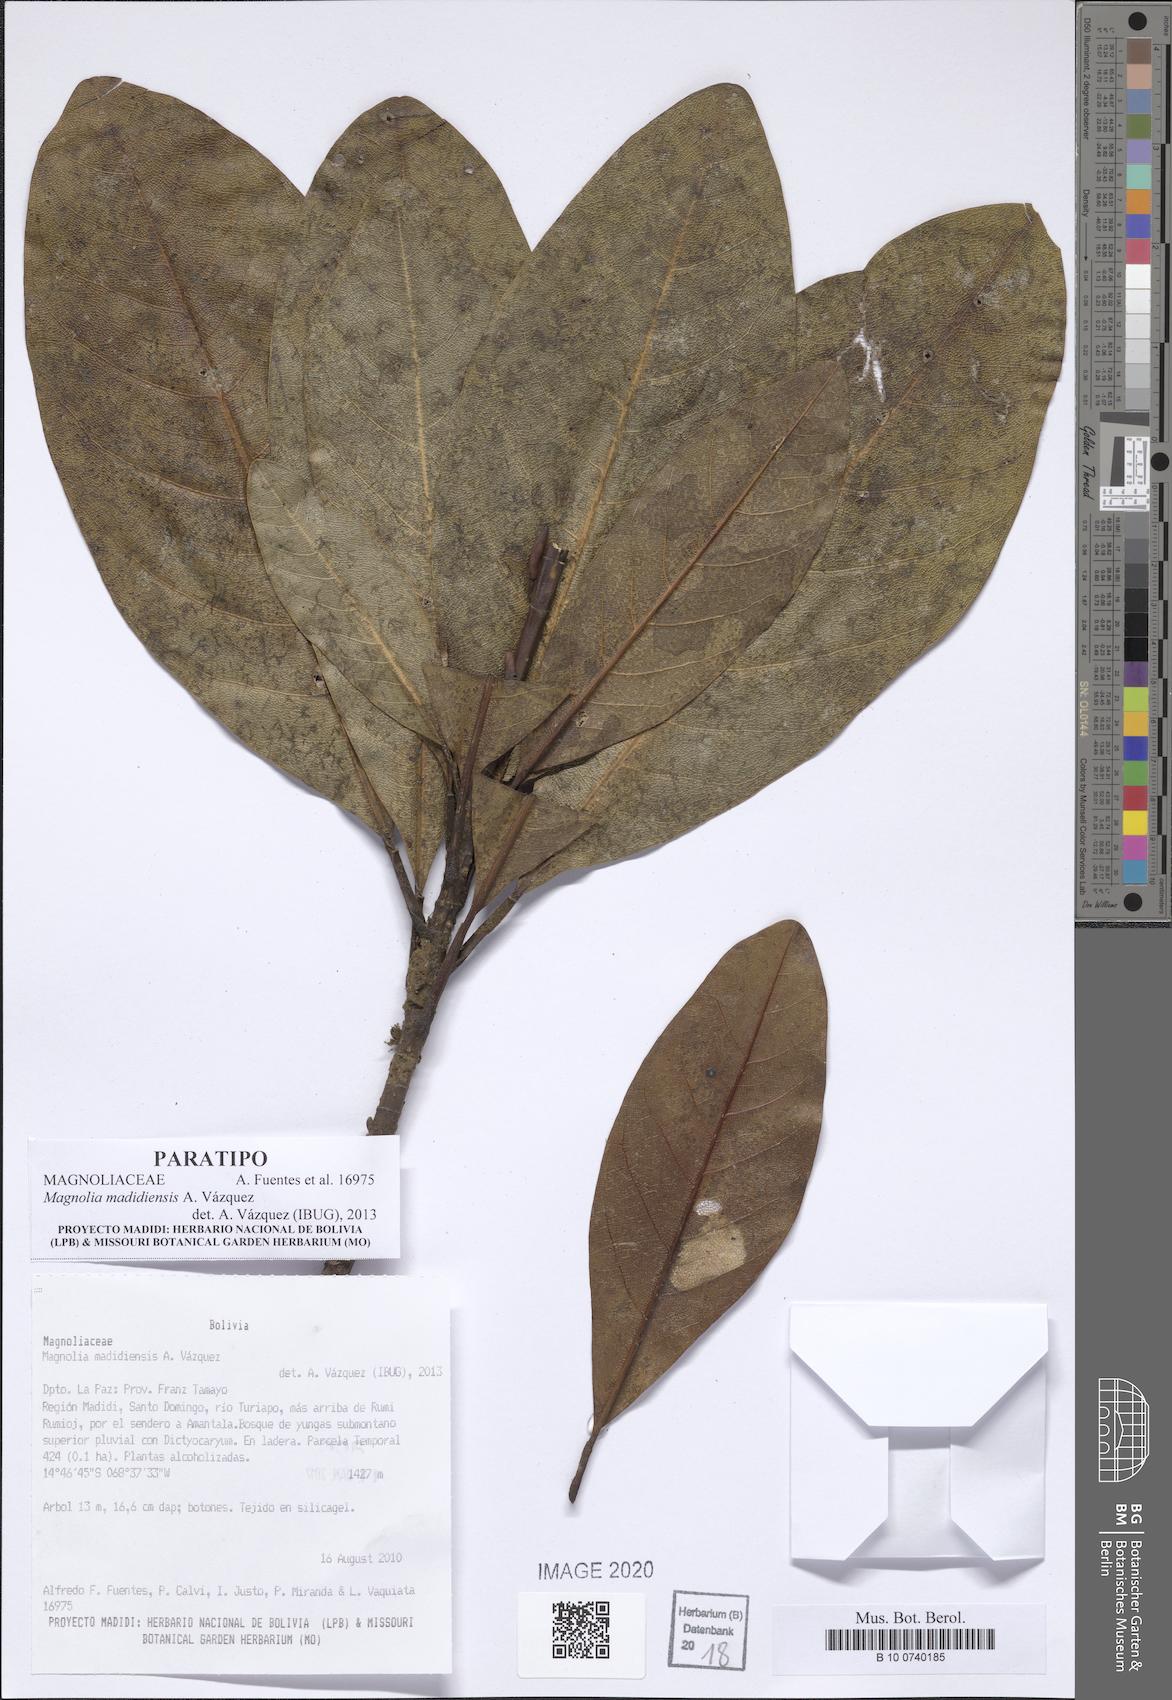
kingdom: Plantae
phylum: Tracheophyta
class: Magnoliopsida
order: Magnoliales
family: Magnoliaceae
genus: Magnolia
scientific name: Magnolia madidiensis
